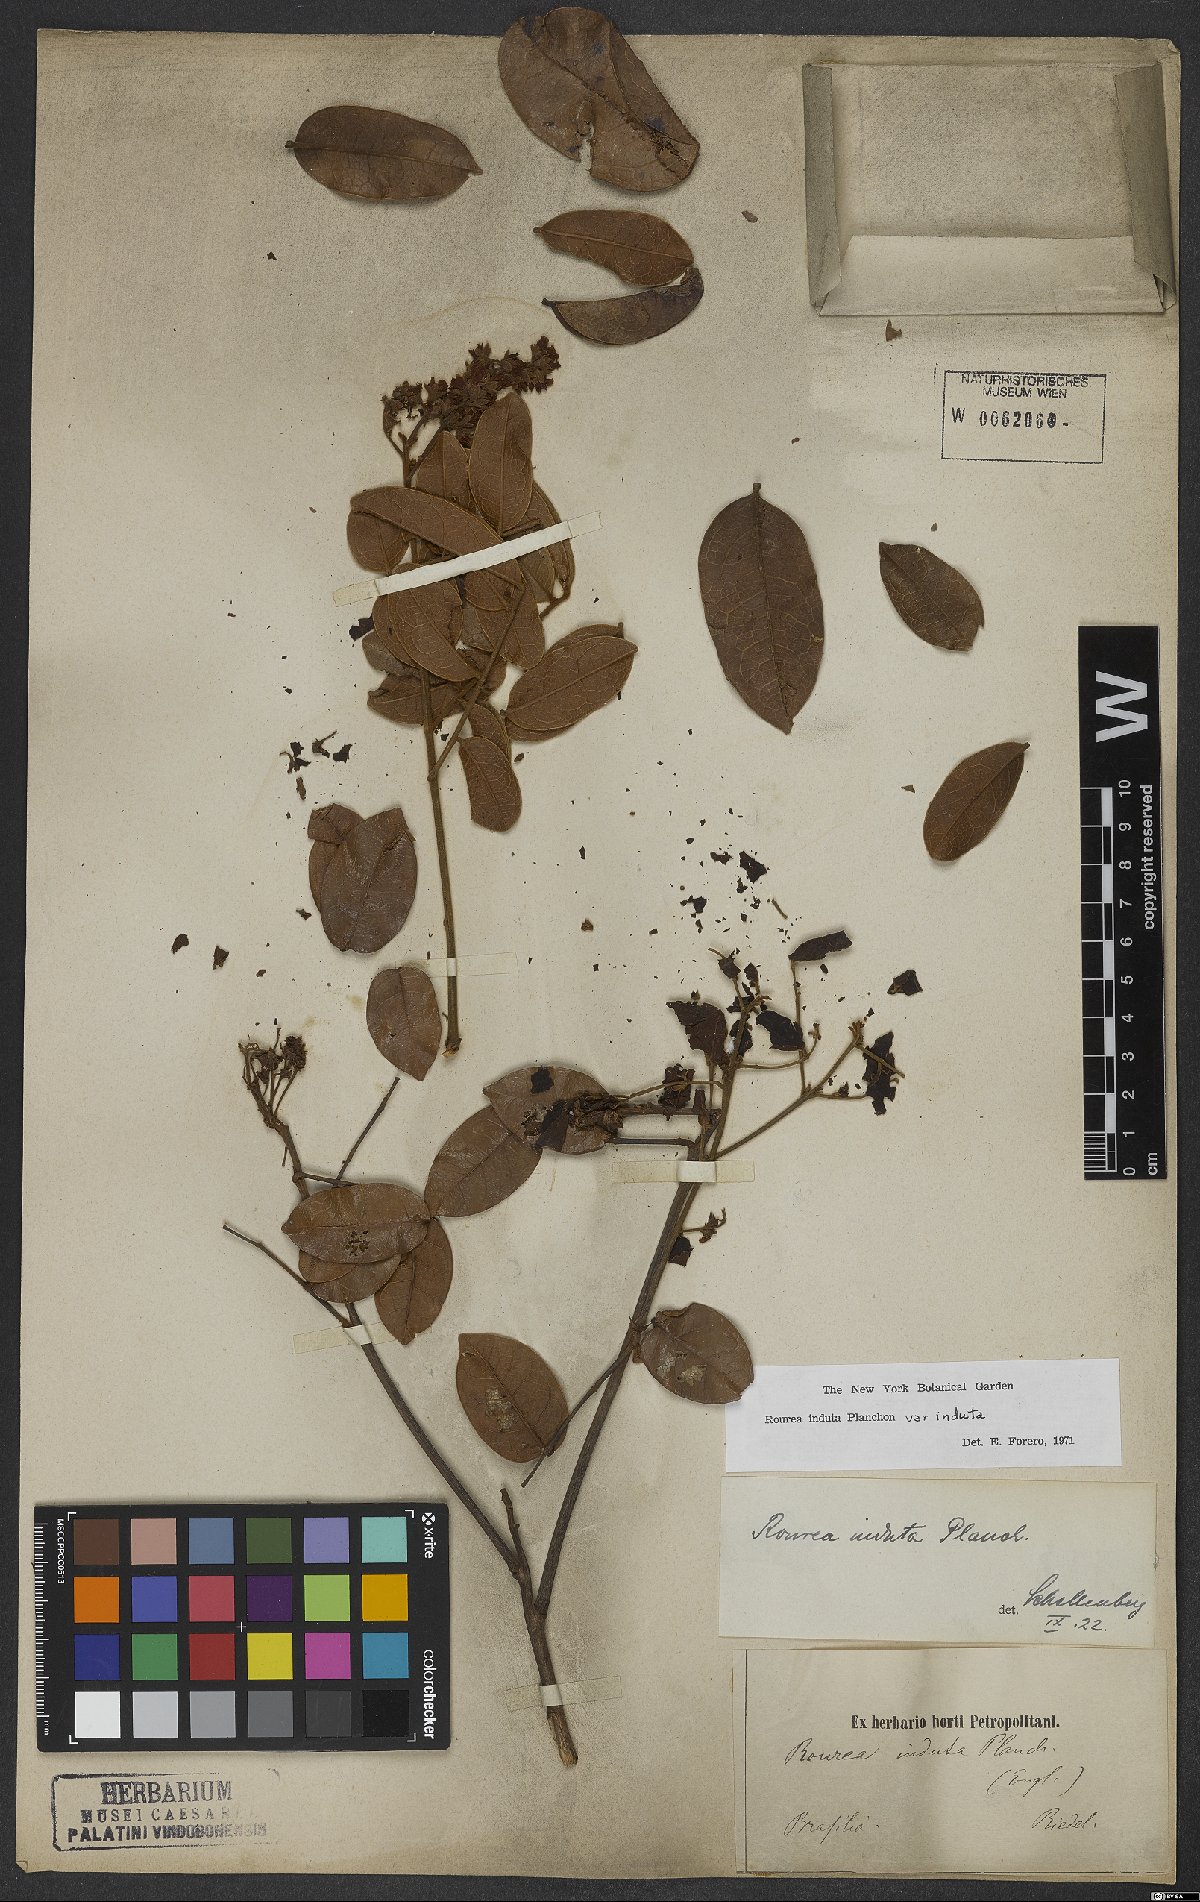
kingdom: Plantae
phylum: Tracheophyta
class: Magnoliopsida
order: Oxalidales
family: Connaraceae
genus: Rourea
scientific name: Rourea induta
